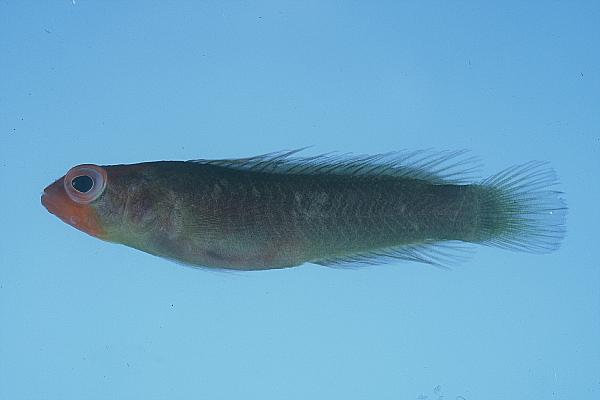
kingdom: Animalia
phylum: Chordata
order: Perciformes
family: Pseudochromidae
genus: Chlidichthys
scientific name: Chlidichthys foudioides
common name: Fody dottyback
